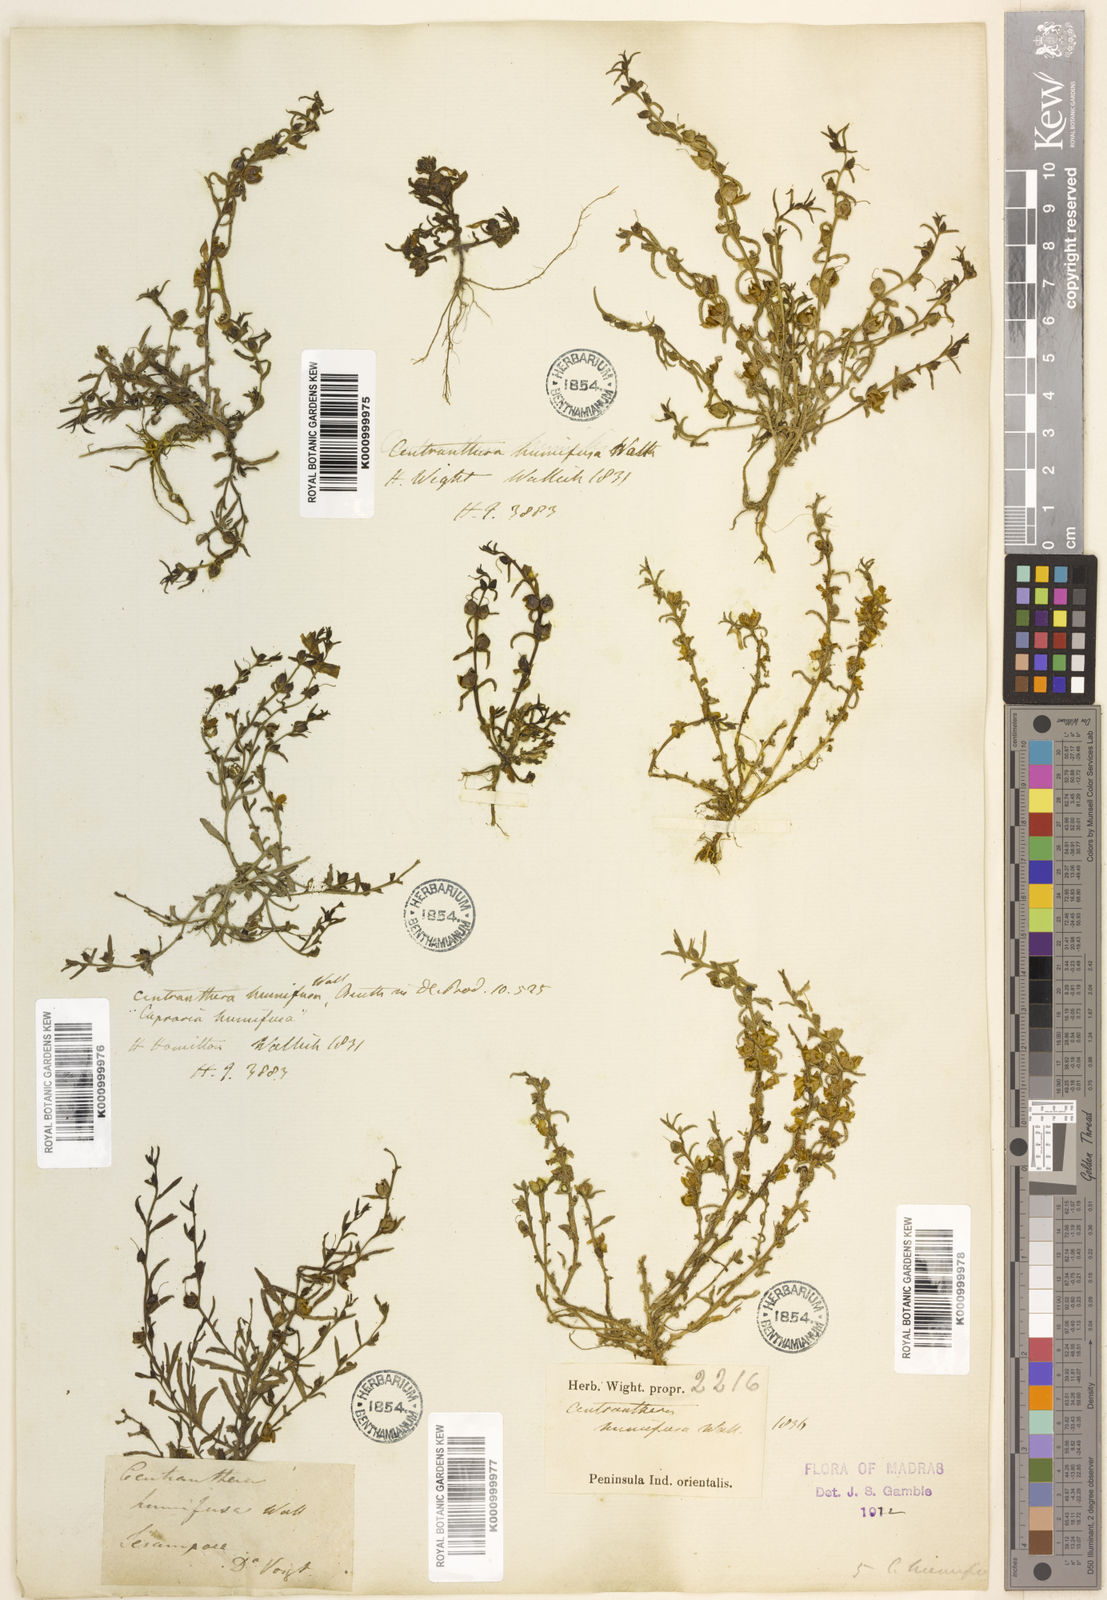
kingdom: Plantae
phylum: Tracheophyta
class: Magnoliopsida
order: Lamiales
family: Orobanchaceae
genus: Centranthera
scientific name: Centranthera
